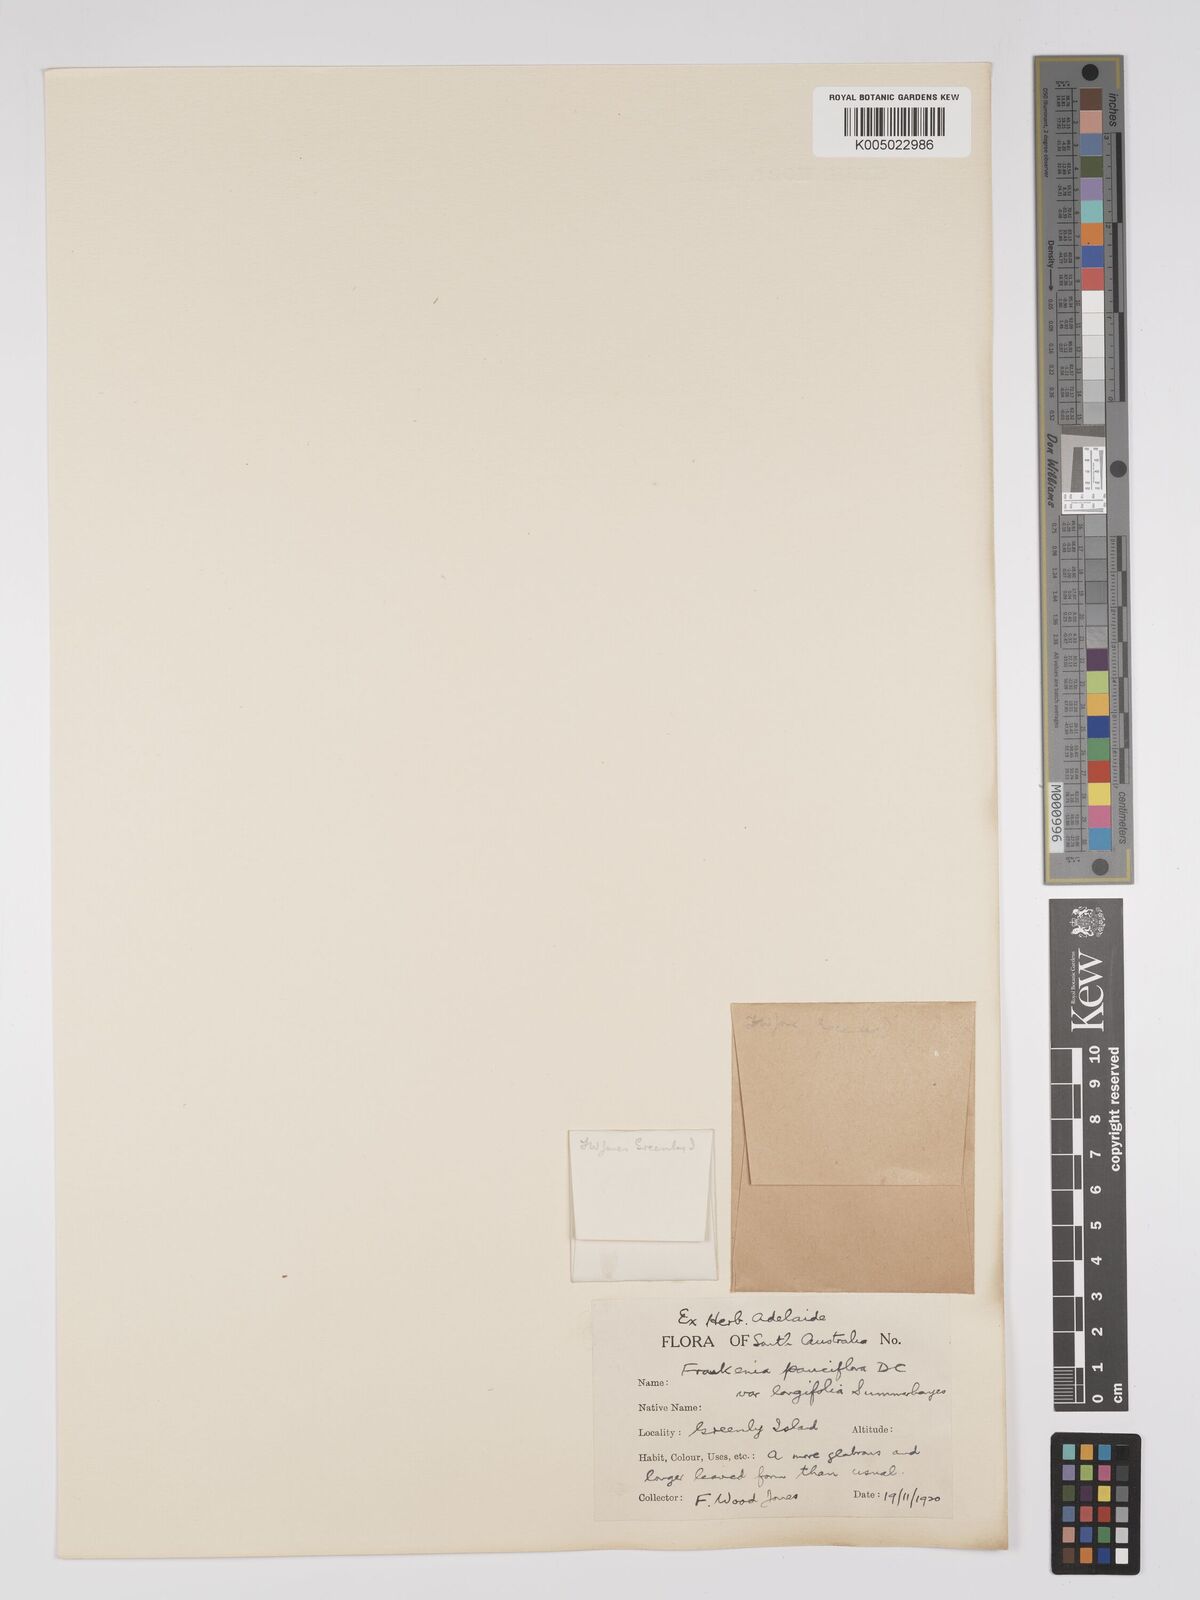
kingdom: Plantae
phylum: Tracheophyta
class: Magnoliopsida
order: Caryophyllales
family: Frankeniaceae
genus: Frankenia
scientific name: Frankenia pauciflora
